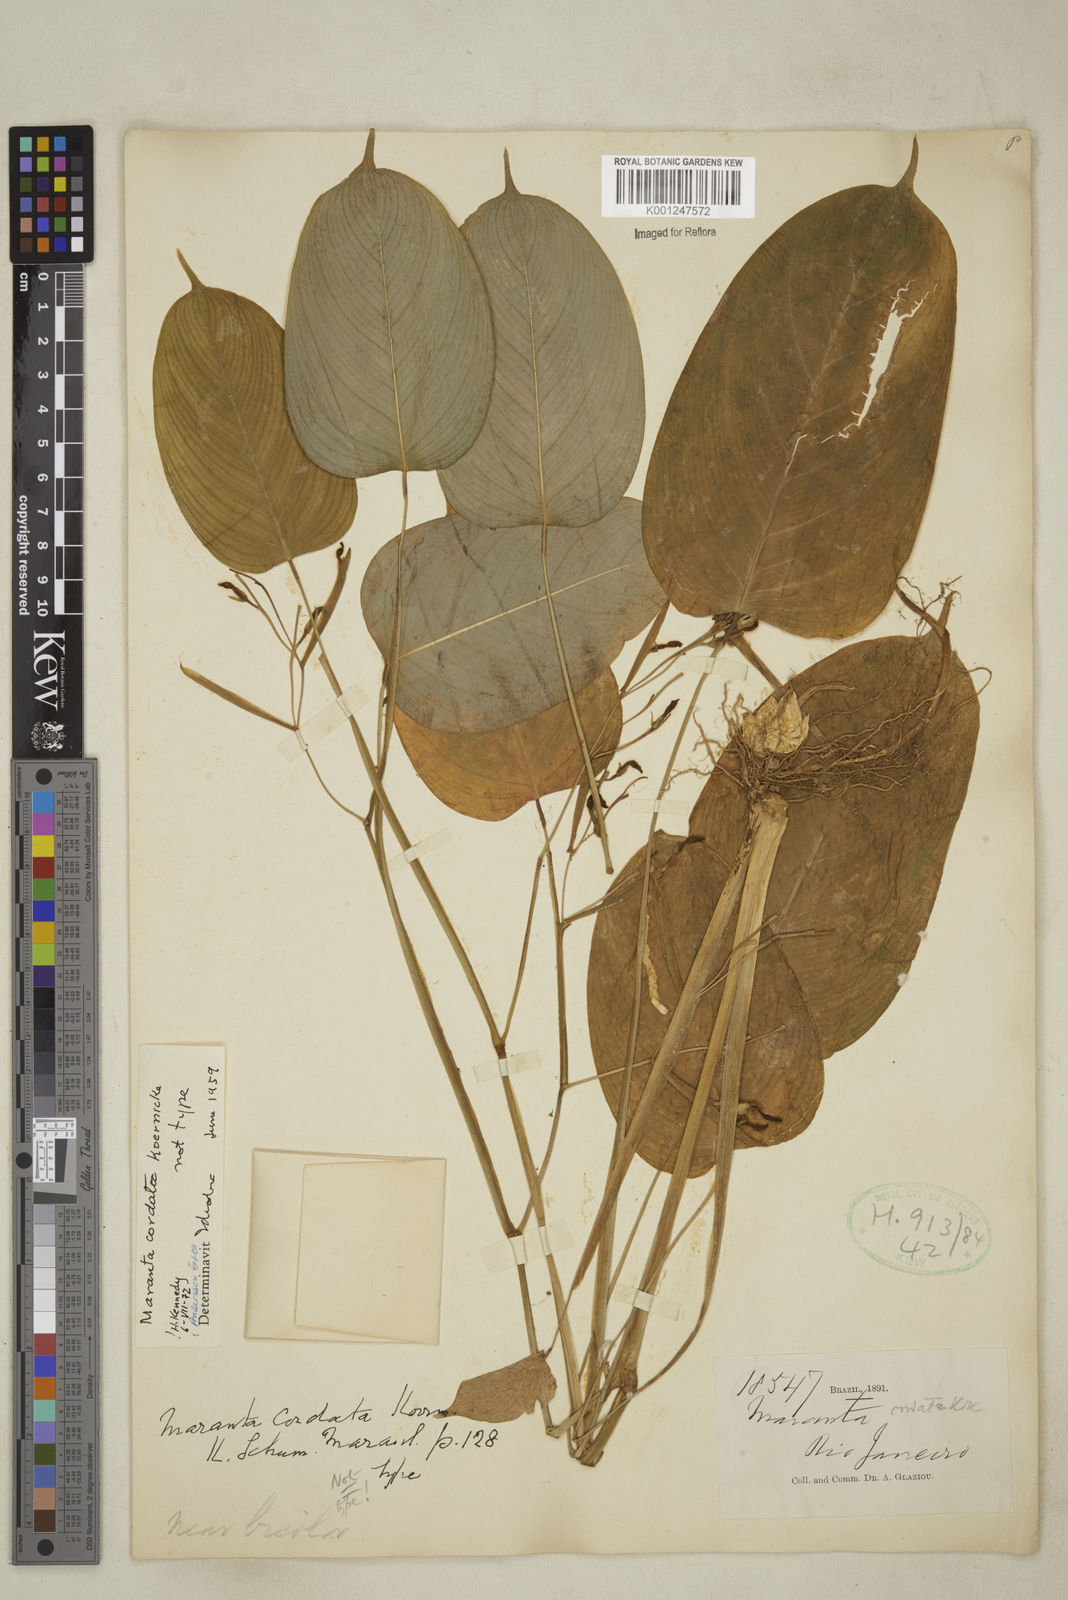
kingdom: Plantae
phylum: Tracheophyta
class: Liliopsida
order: Zingiberales
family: Marantaceae
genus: Maranta
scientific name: Maranta cordata
